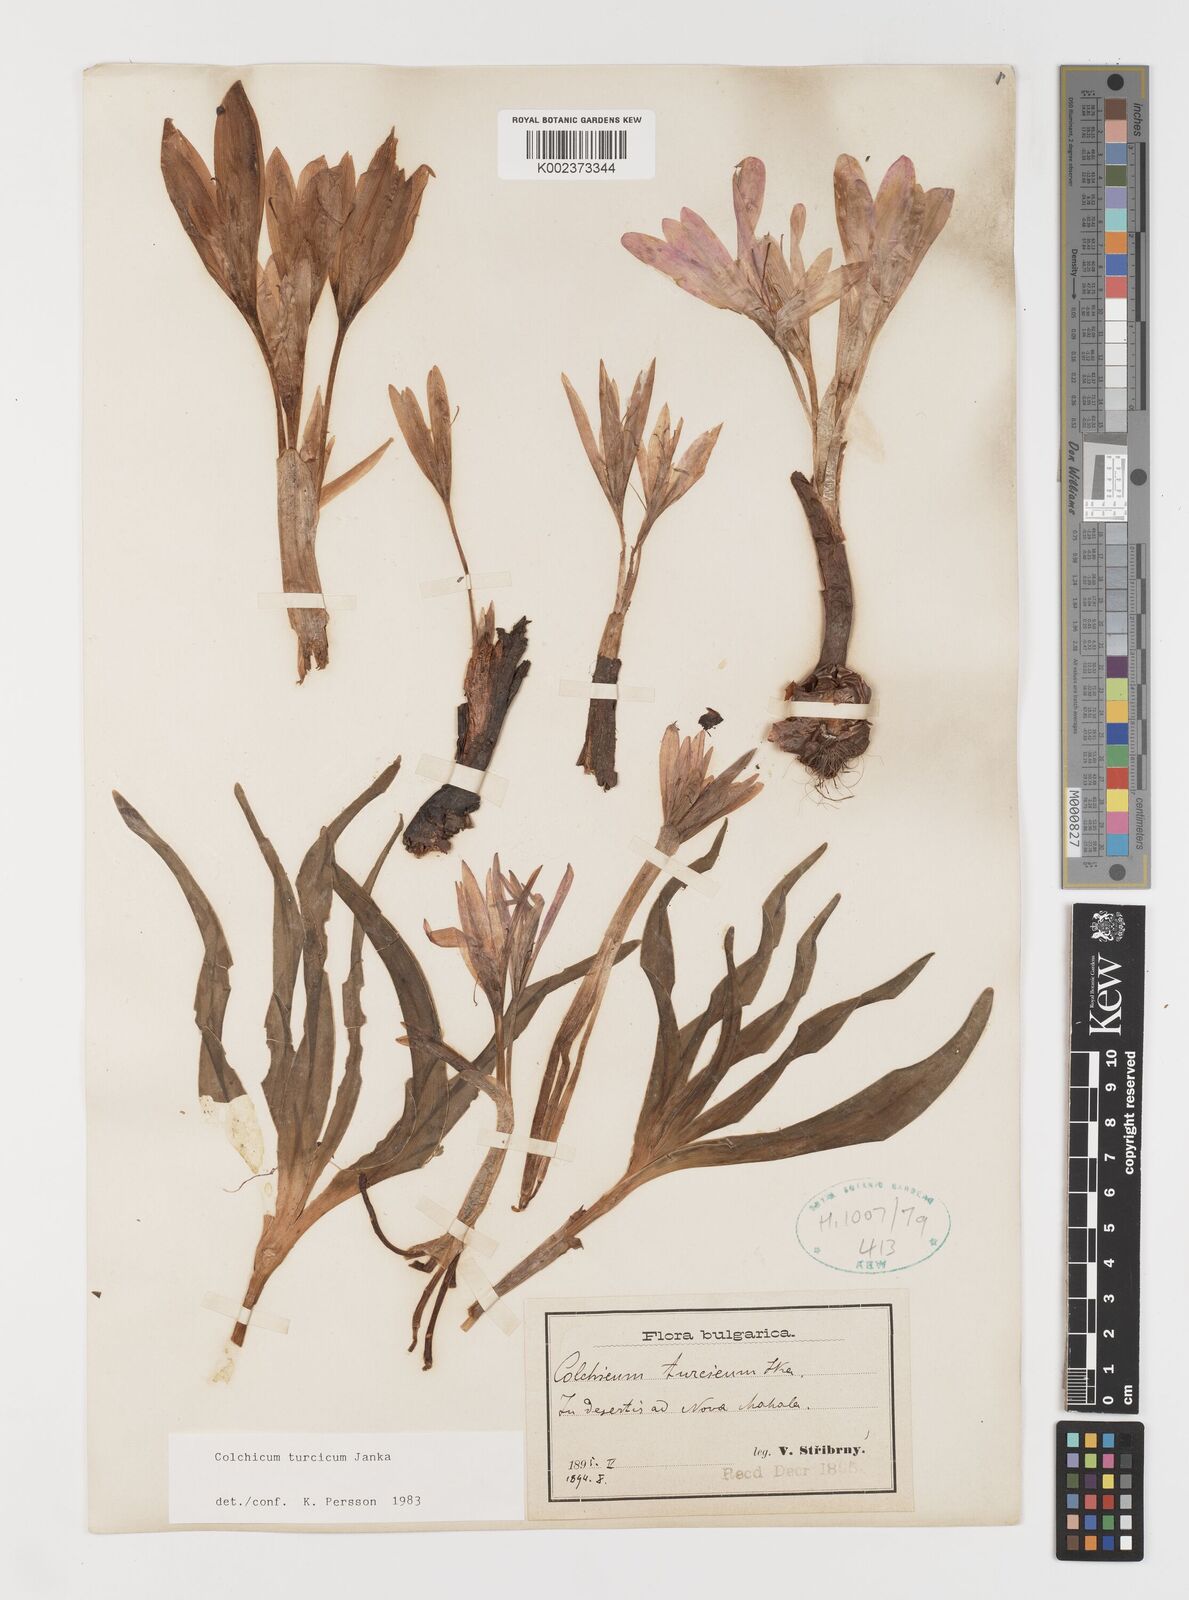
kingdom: Plantae
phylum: Tracheophyta
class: Liliopsida
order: Liliales
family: Colchicaceae
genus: Colchicum
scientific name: Colchicum turcicum
